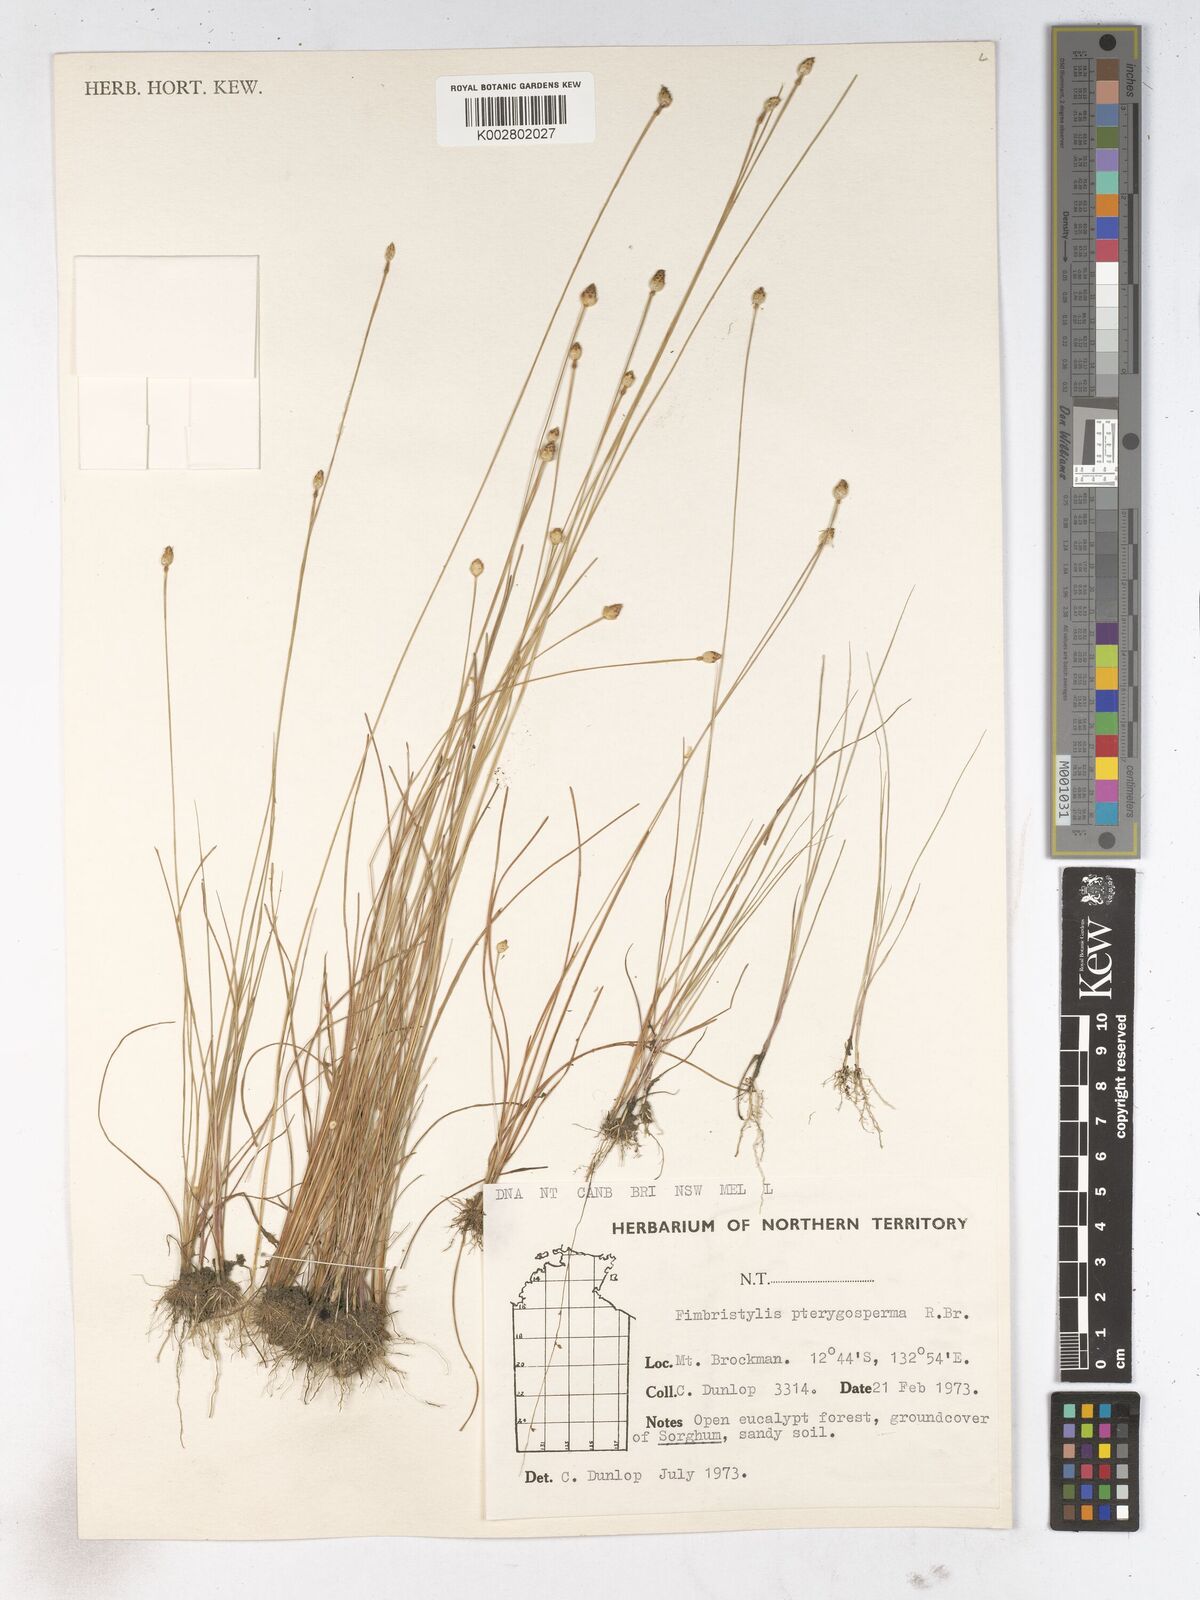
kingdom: Plantae
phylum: Tracheophyta
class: Liliopsida
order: Poales
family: Cyperaceae
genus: Fimbristylis
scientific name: Fimbristylis pterigosperma
